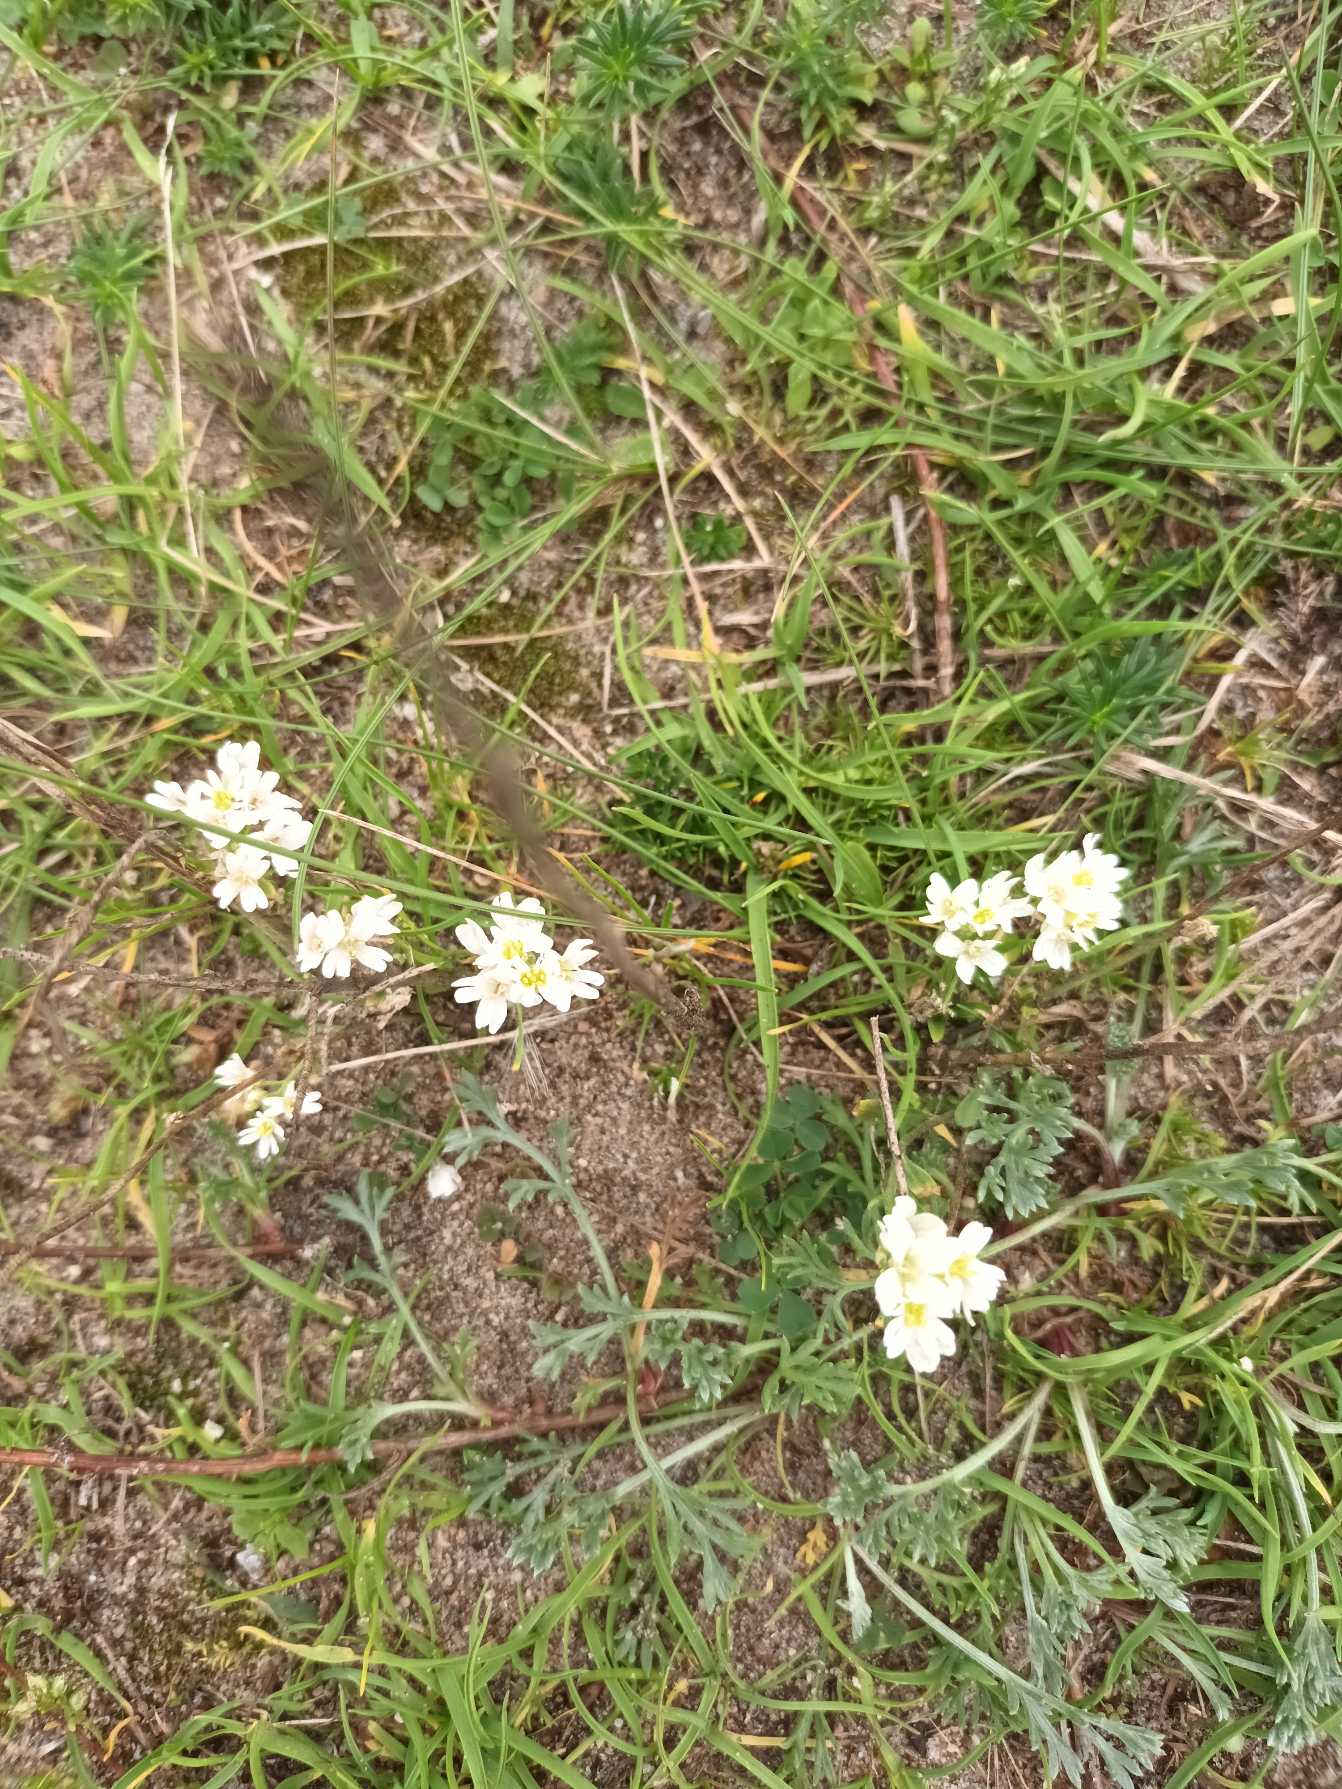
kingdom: Plantae
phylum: Tracheophyta
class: Magnoliopsida
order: Brassicales
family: Brassicaceae
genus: Berteroa
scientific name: Berteroa incana
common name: Kløvplade
